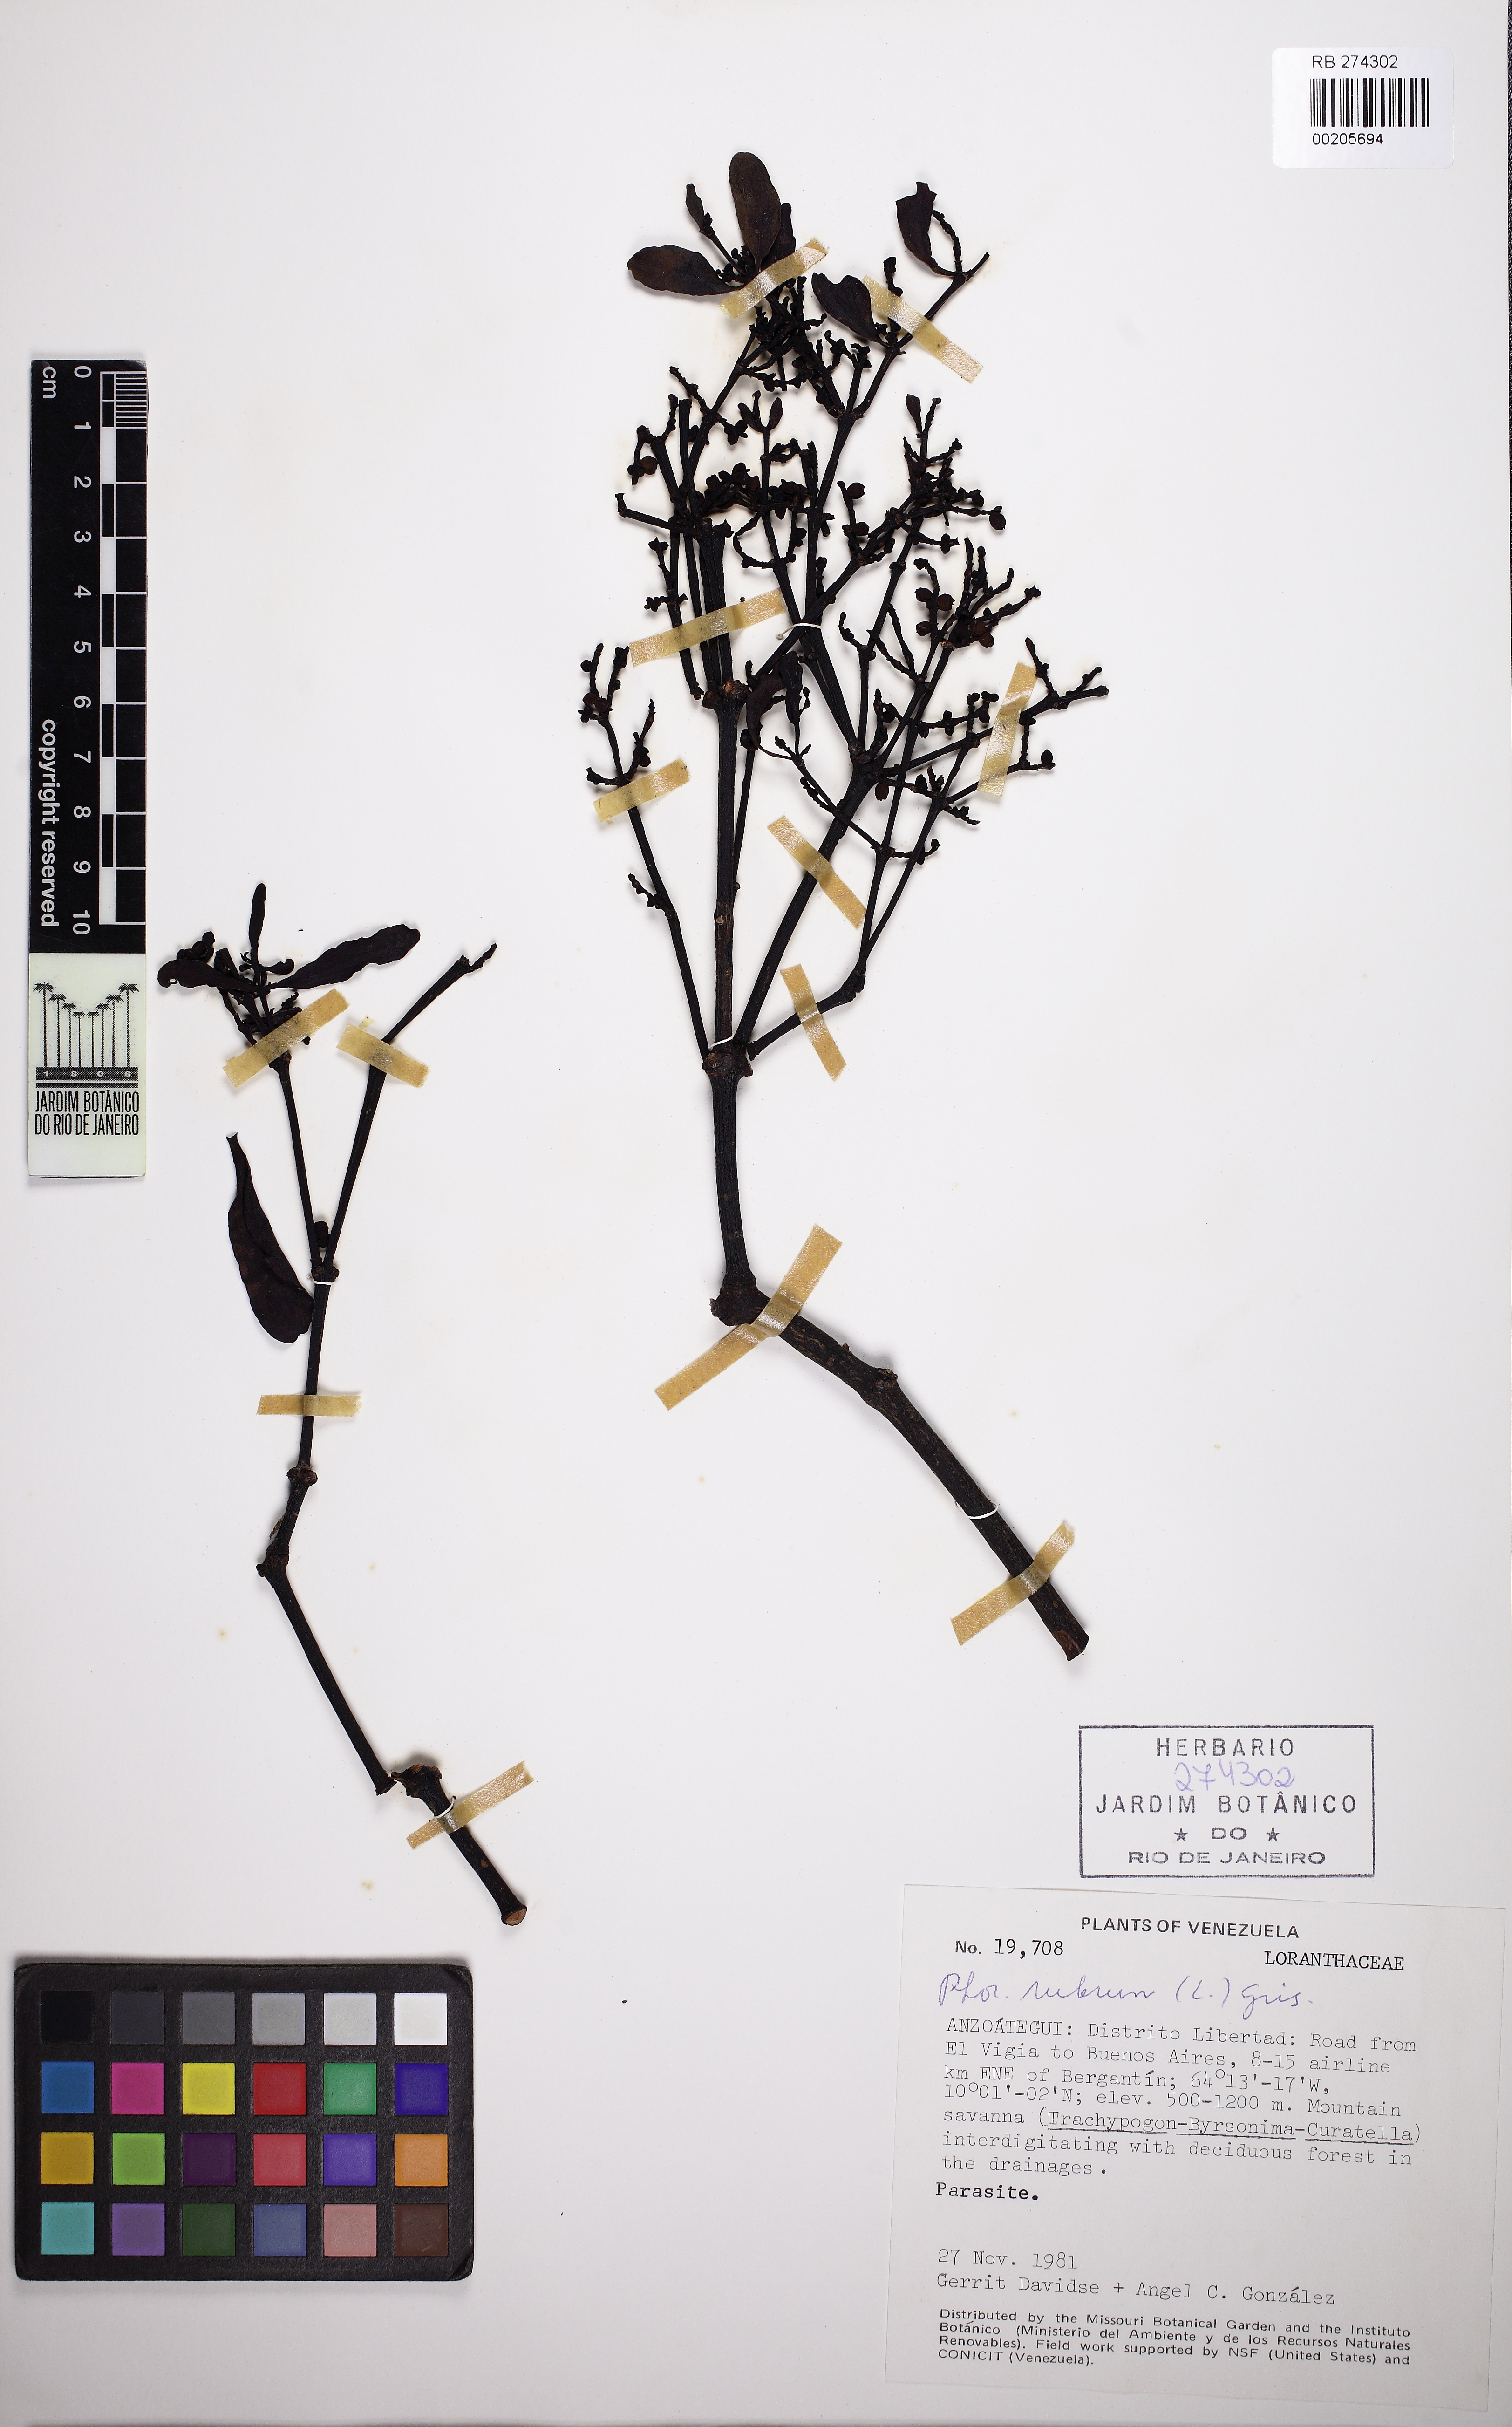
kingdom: Plantae
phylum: Tracheophyta
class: Magnoliopsida
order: Santalales
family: Viscaceae
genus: Phoradendron
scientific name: Phoradendron rubrum
